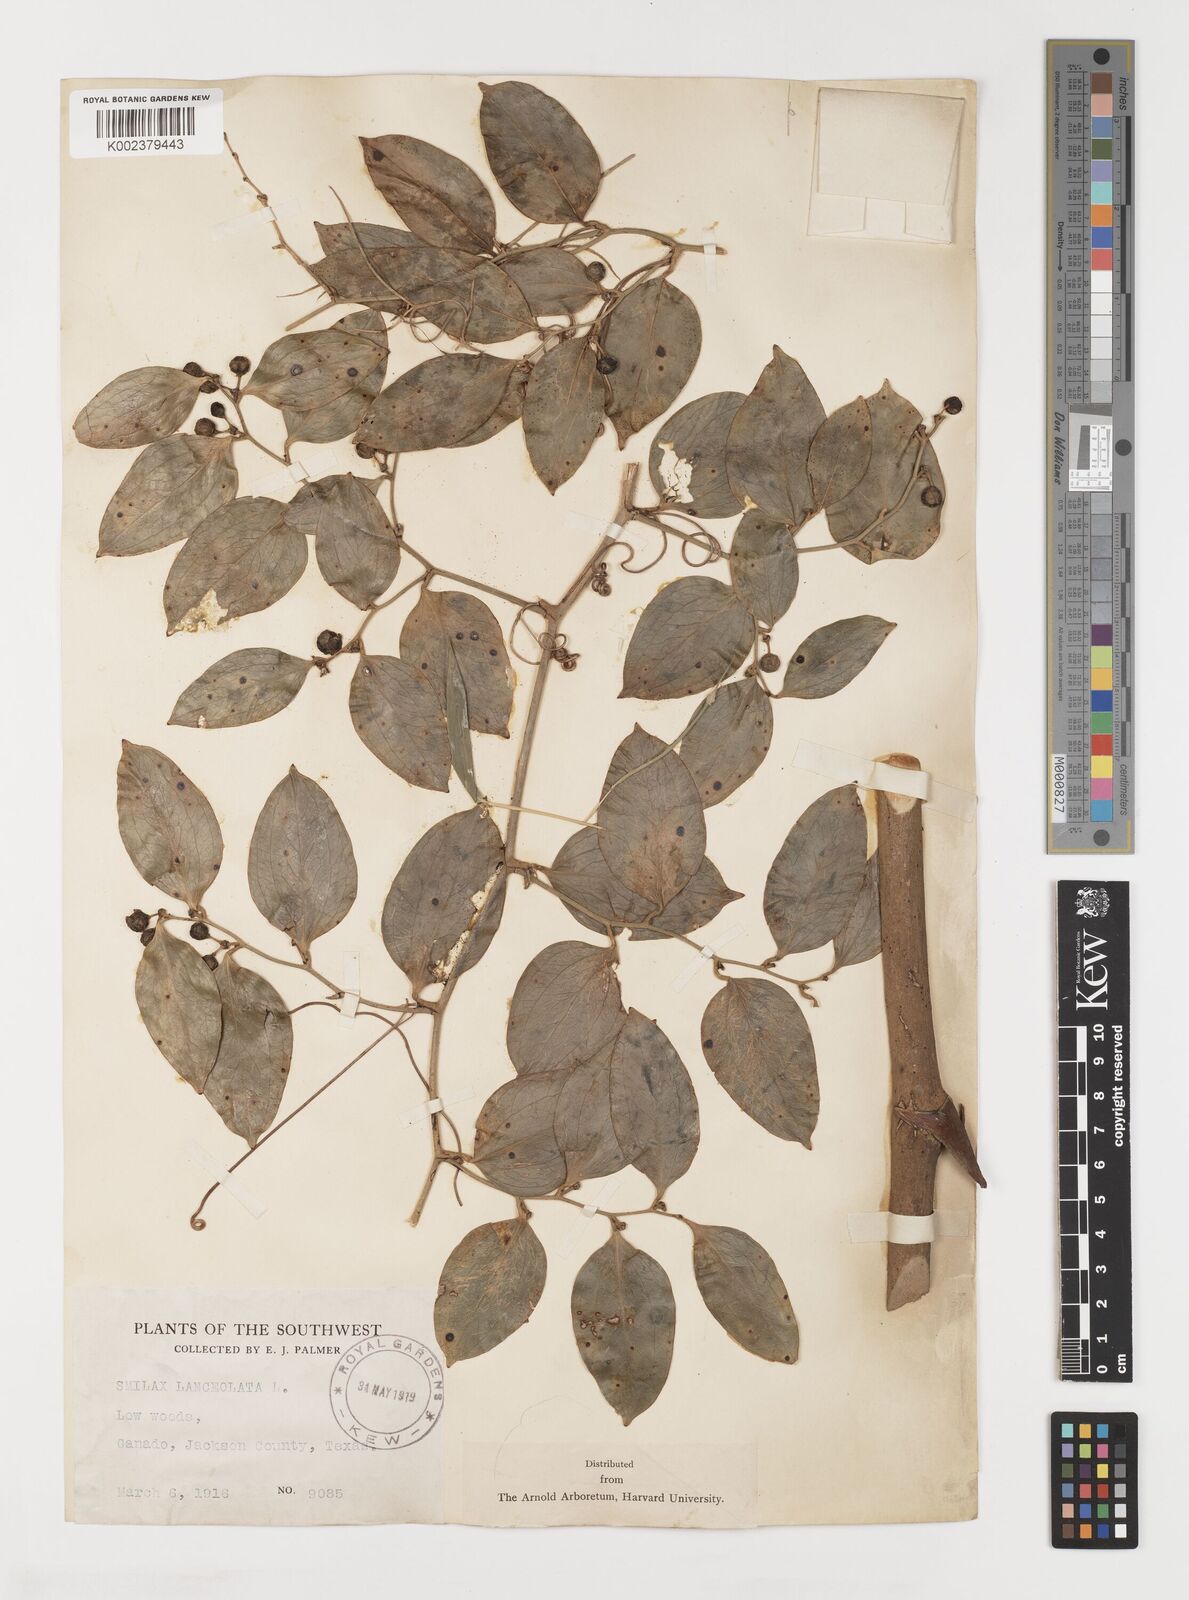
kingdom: Plantae
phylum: Tracheophyta
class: Liliopsida
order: Liliales
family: Smilacaceae
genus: Smilax
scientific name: Smilax laurifolia
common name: Bamboovine
